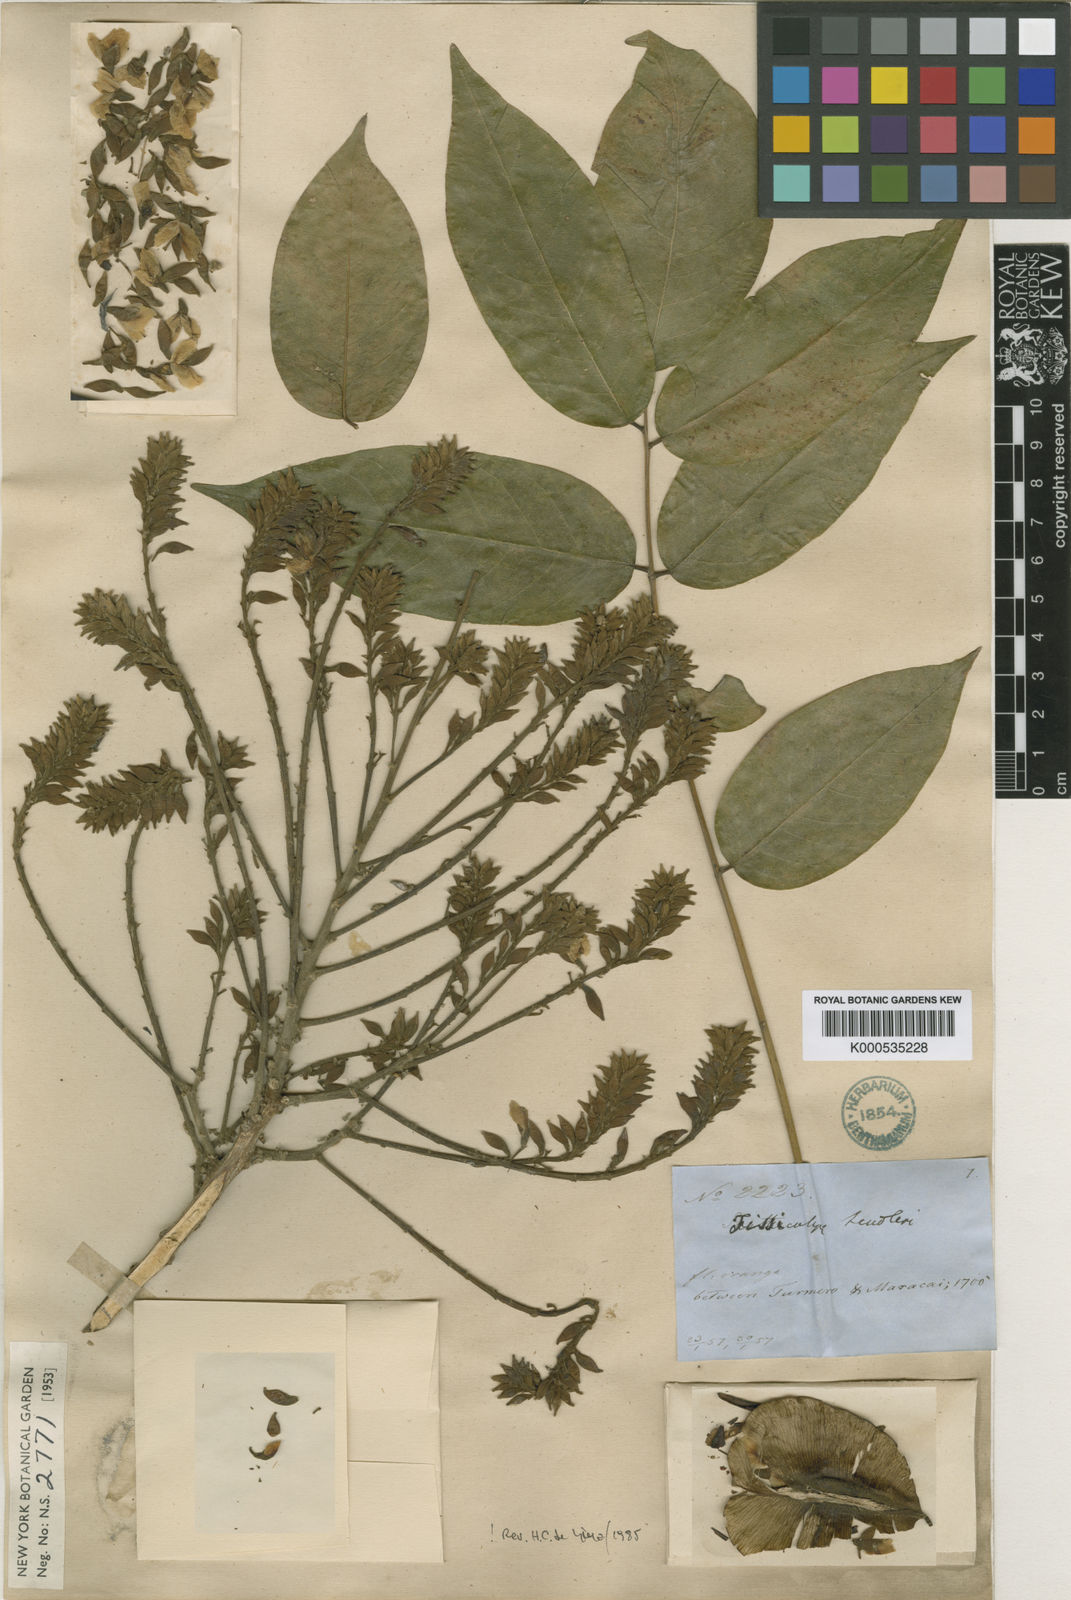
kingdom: Plantae
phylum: Tracheophyta
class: Magnoliopsida
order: Fabales
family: Fabaceae
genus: Fissicalyx
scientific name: Fissicalyx fendleri
